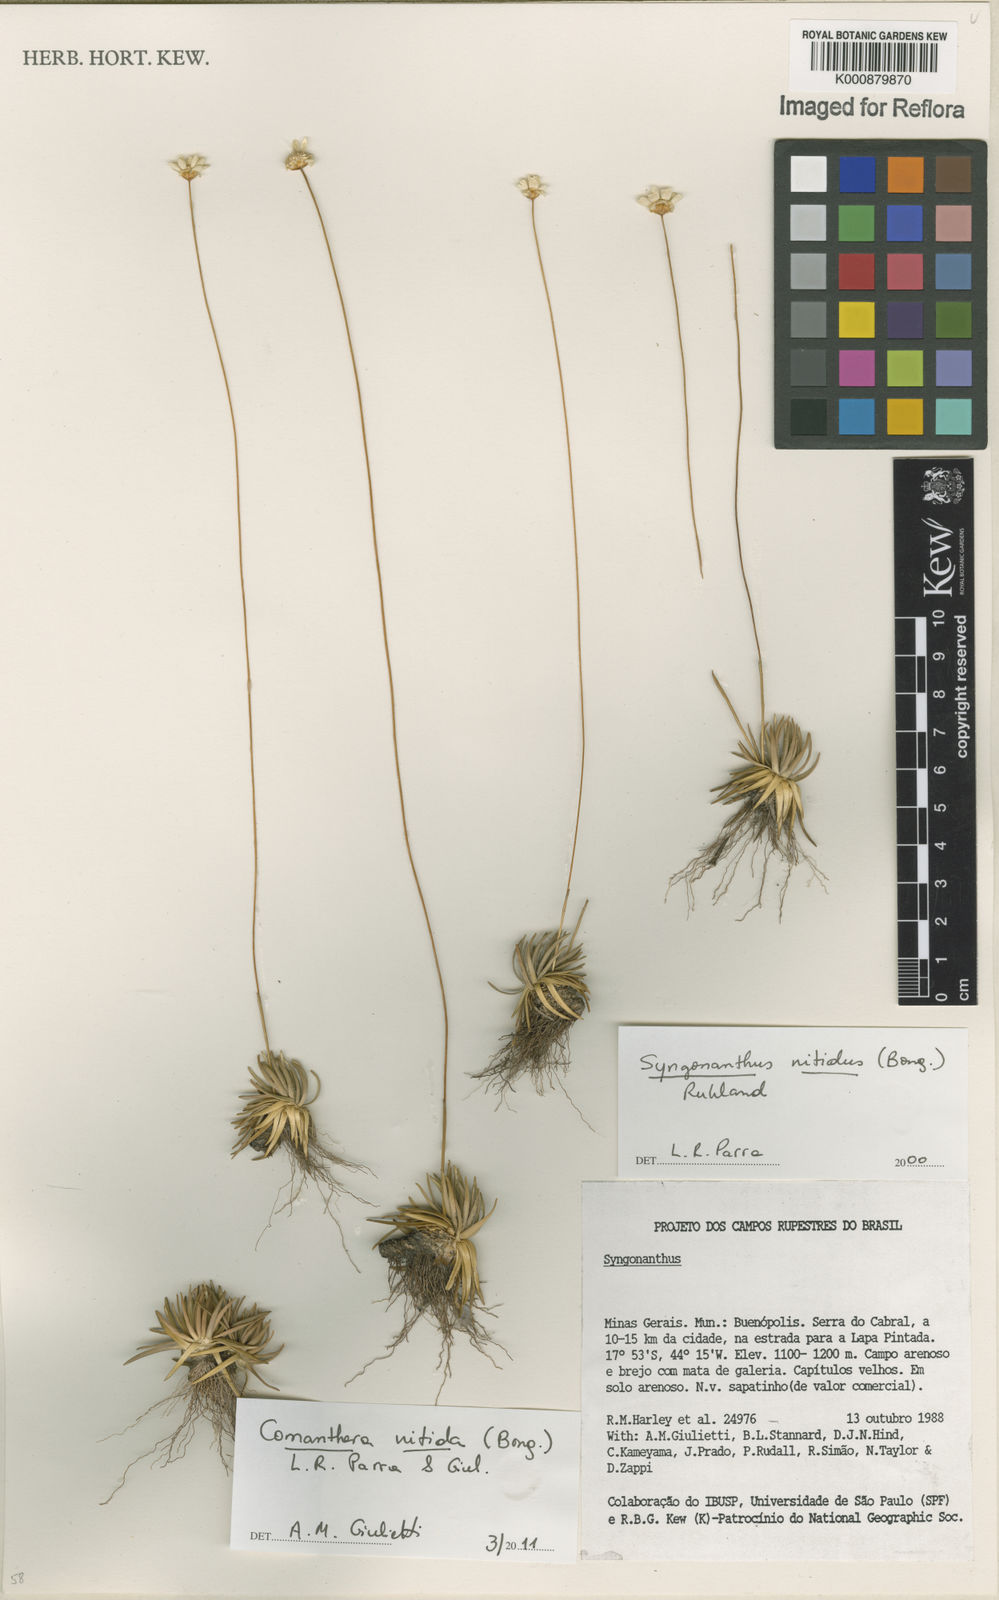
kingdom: Plantae
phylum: Tracheophyta
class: Liliopsida
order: Poales
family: Eriocaulaceae
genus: Comanthera
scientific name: Comanthera nitida
